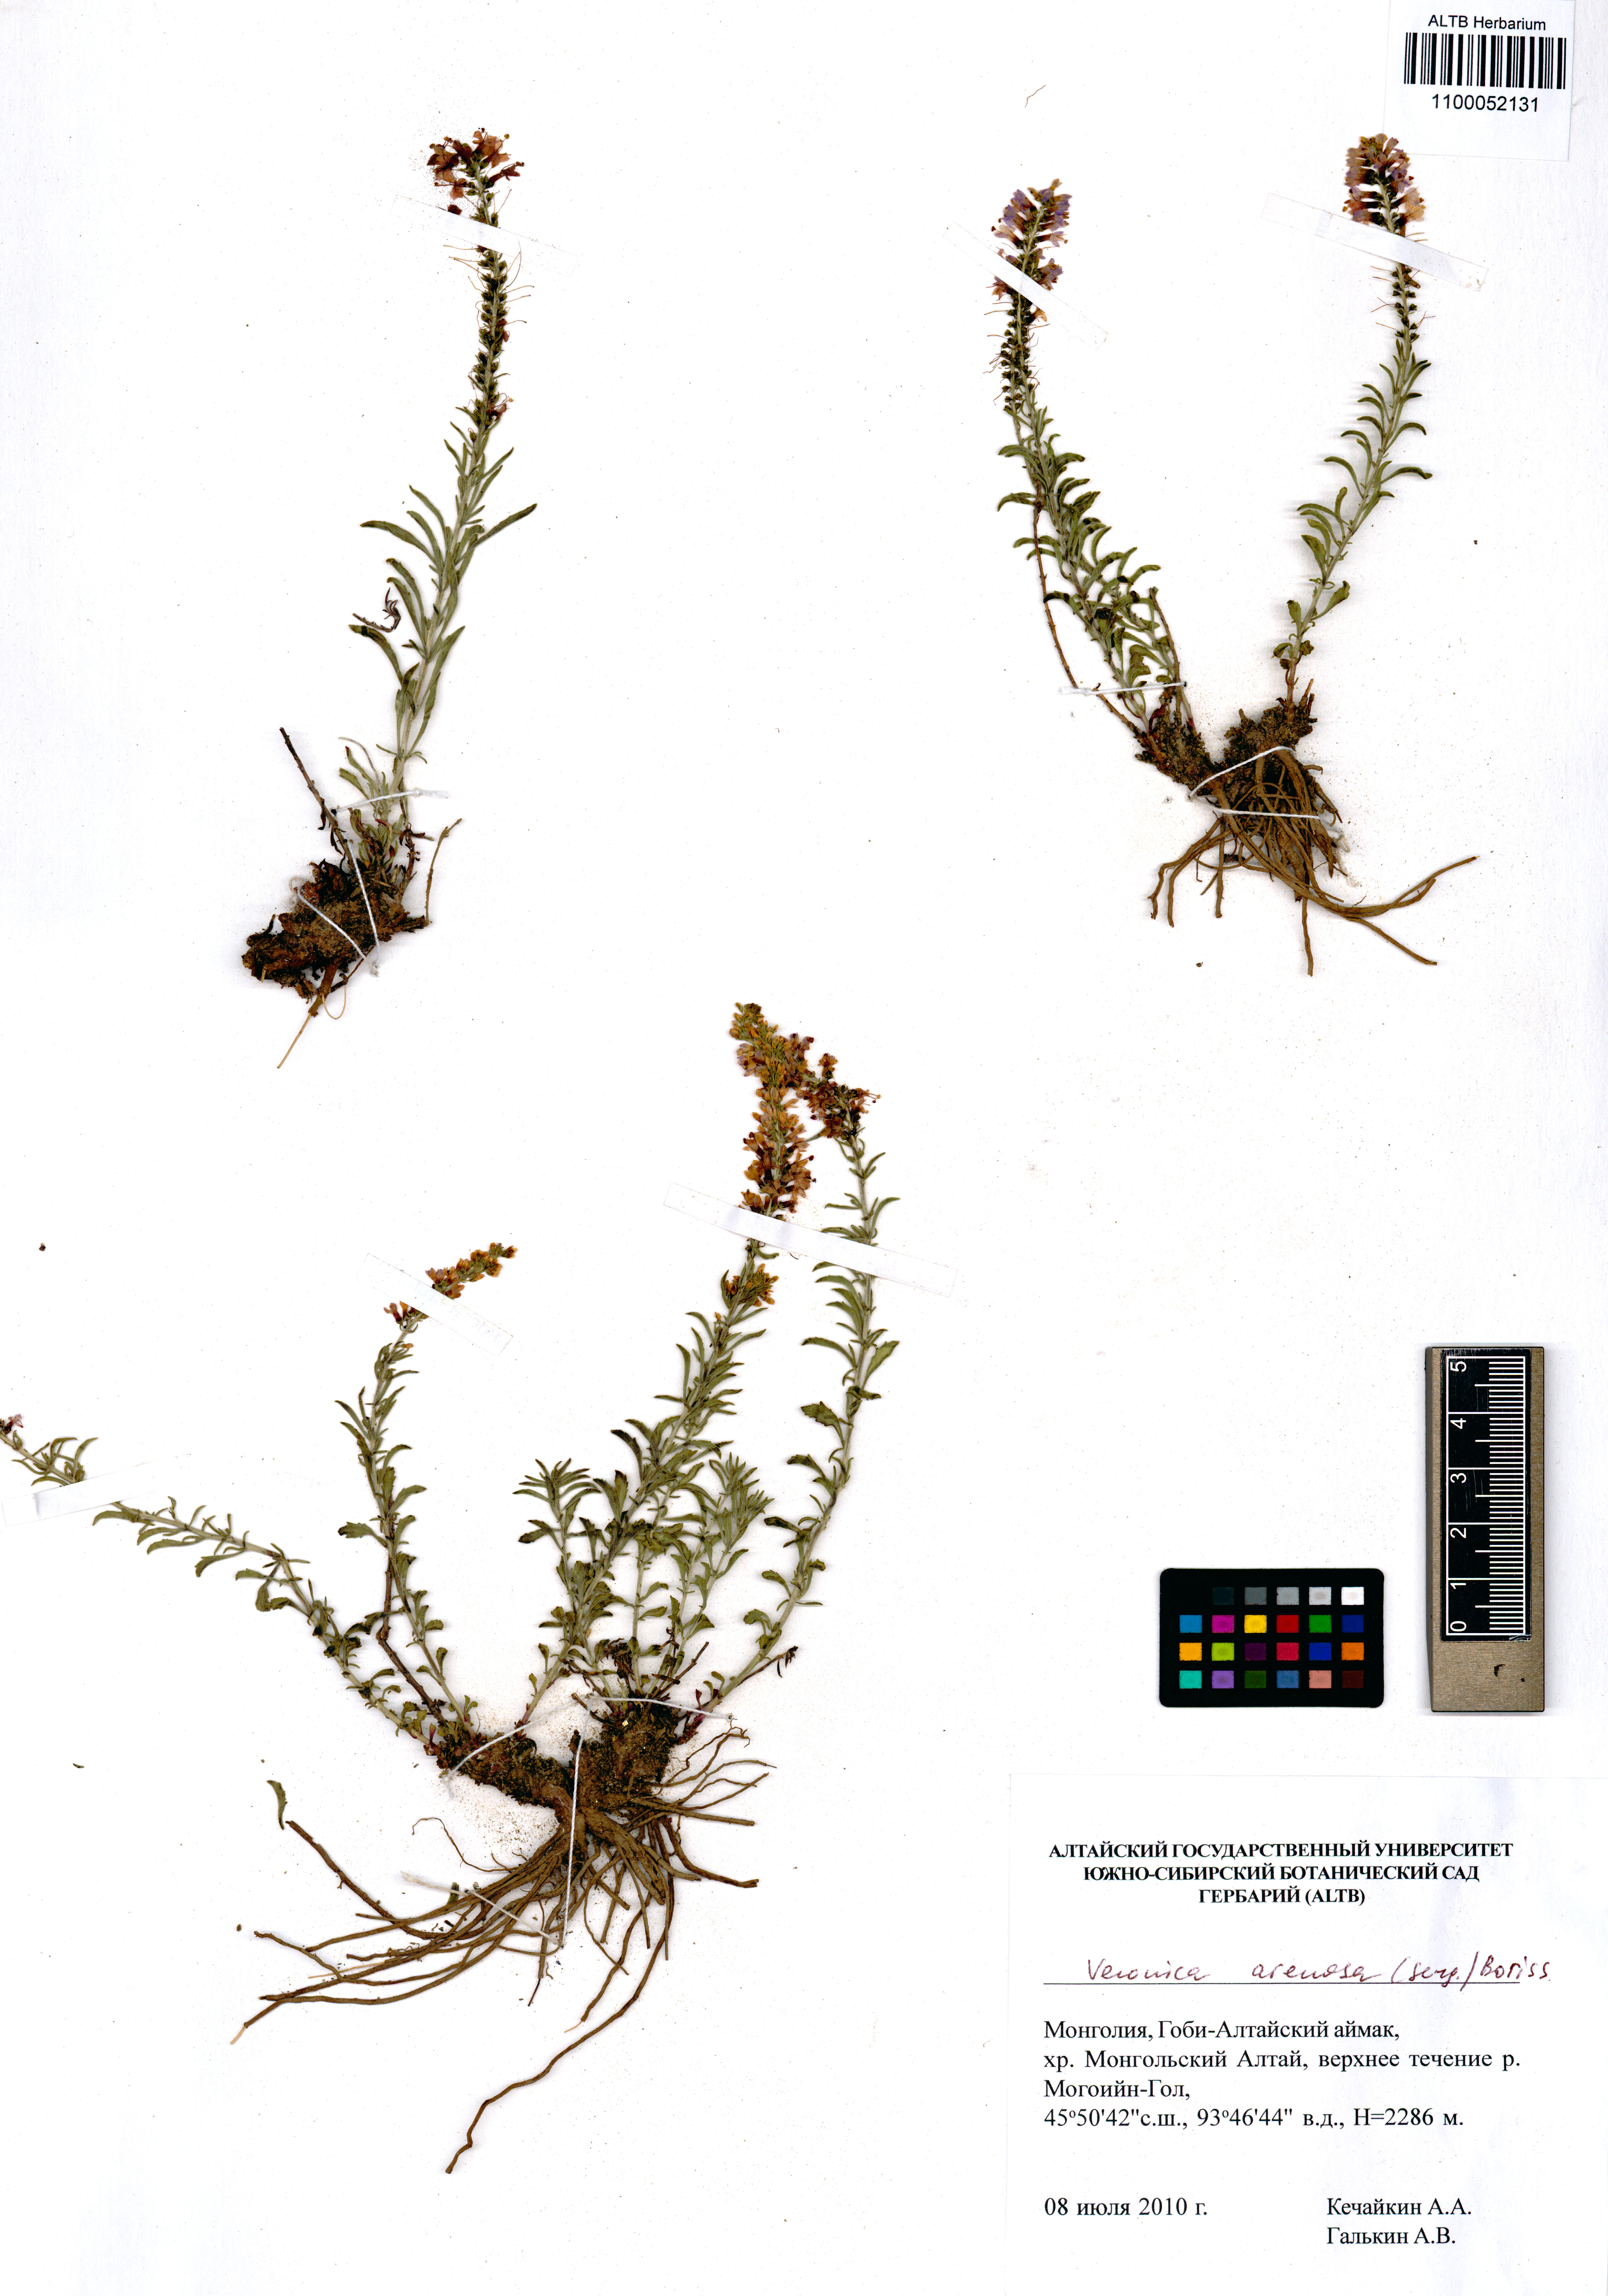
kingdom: Plantae
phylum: Tracheophyta
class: Magnoliopsida
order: Lamiales
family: Plantaginaceae
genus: Veronica
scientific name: Veronica arenosa
